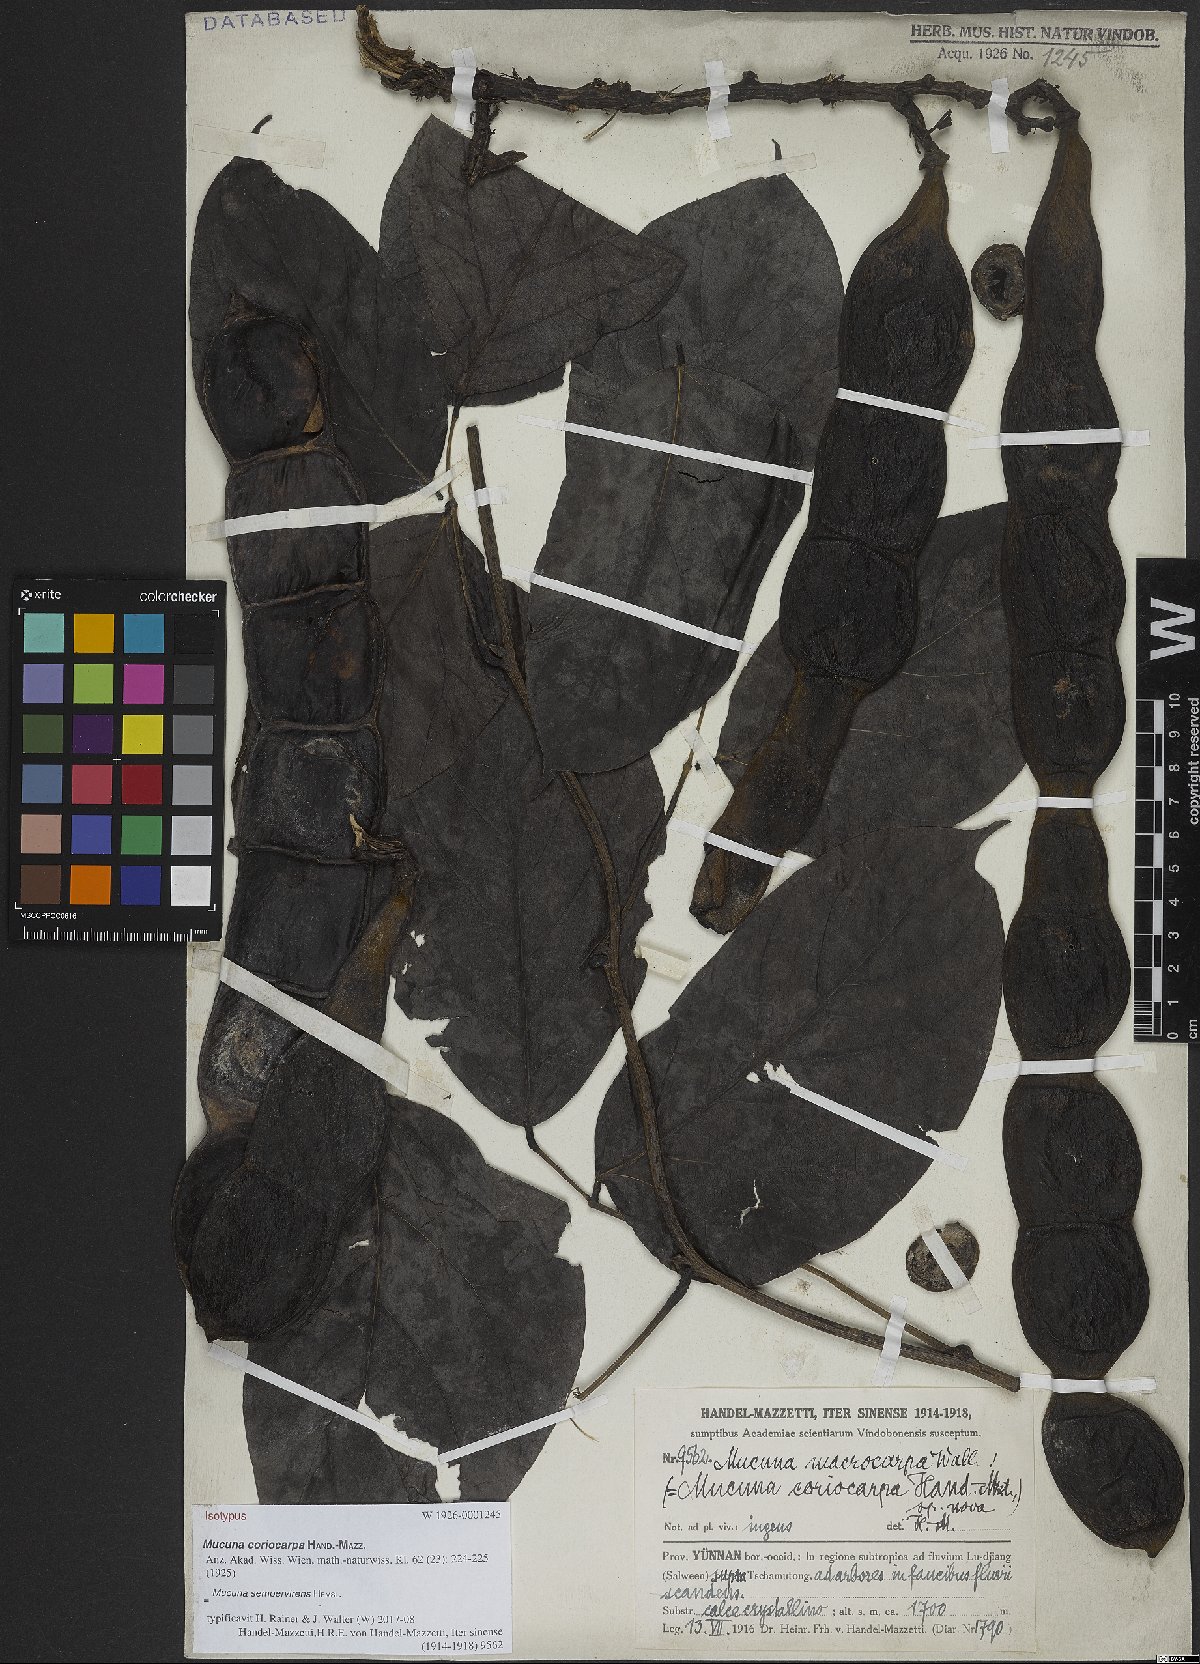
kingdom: Plantae
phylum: Tracheophyta
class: Magnoliopsida
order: Fabales
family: Fabaceae
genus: Mucuna
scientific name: Mucuna sempervirens
